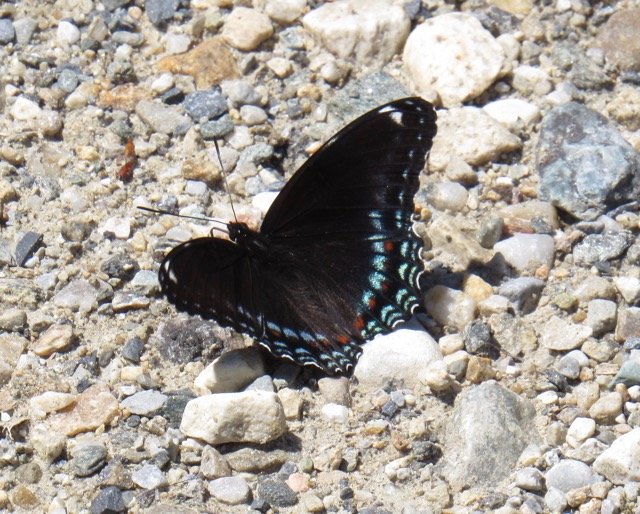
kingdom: Animalia
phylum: Arthropoda
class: Insecta
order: Lepidoptera
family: Nymphalidae
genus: Limenitis
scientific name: Limenitis
